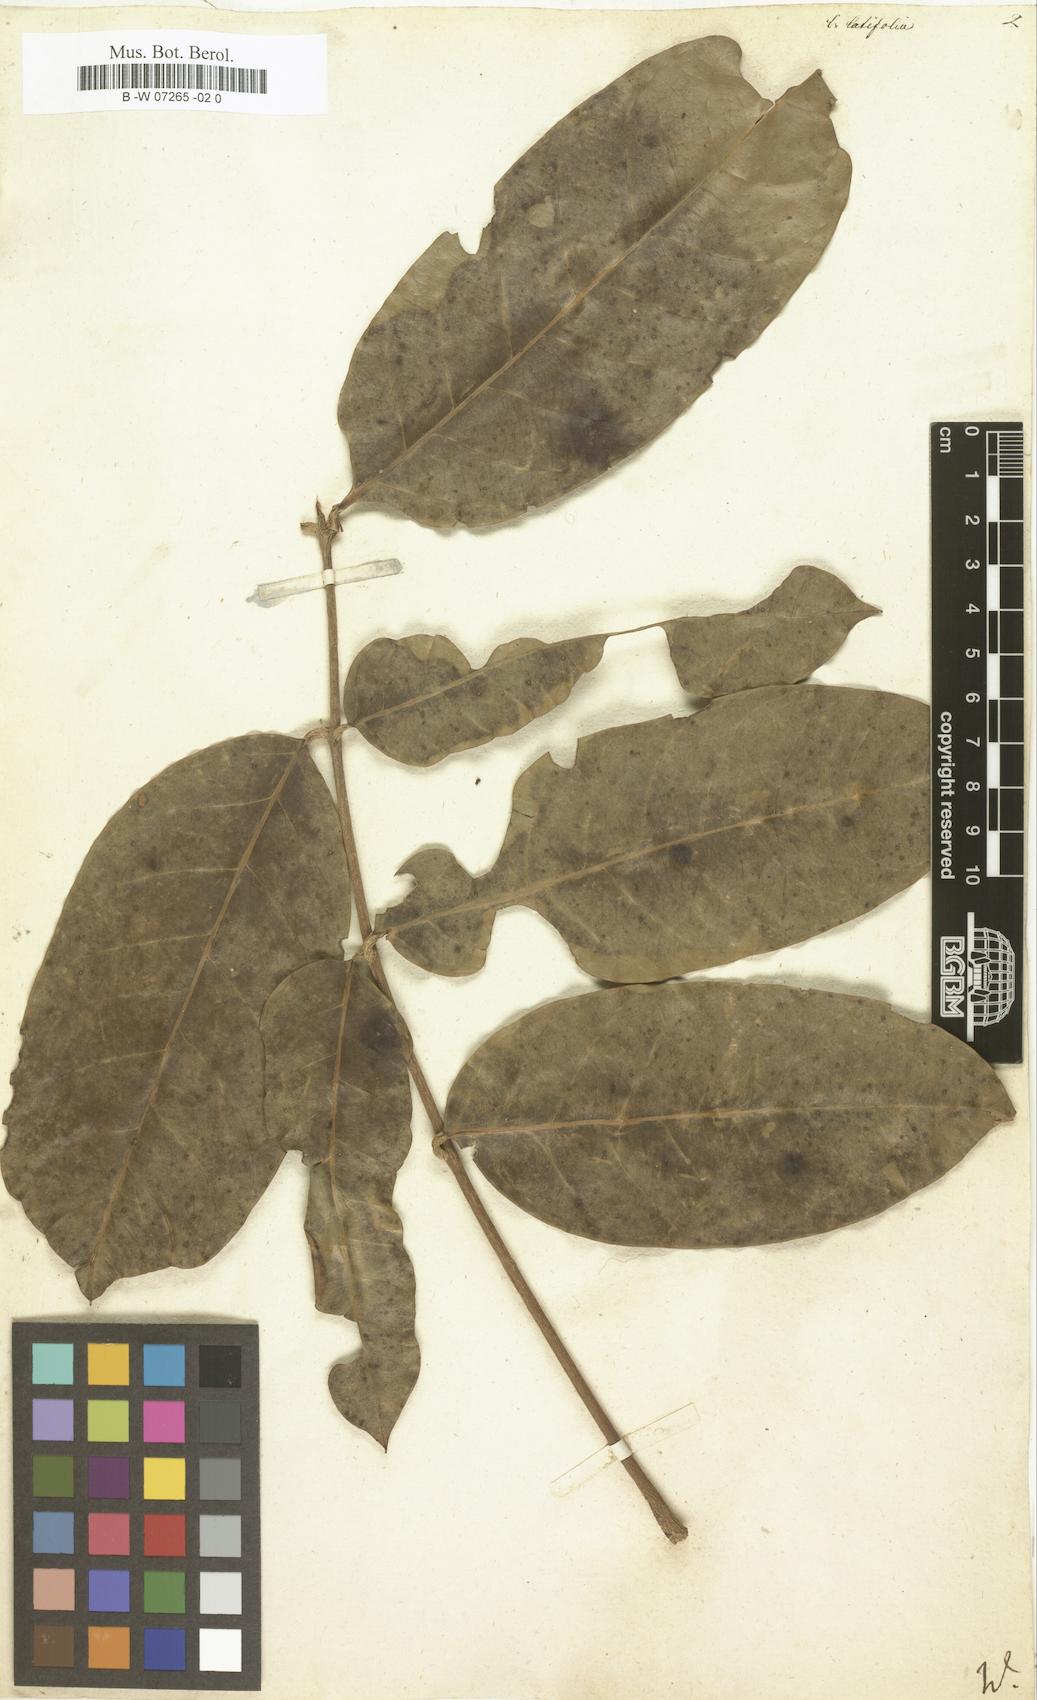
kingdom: Plantae
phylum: Tracheophyta
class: Magnoliopsida
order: Sapindales
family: Meliaceae
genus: Carapa
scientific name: Carapa guianensis
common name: Crabwood
